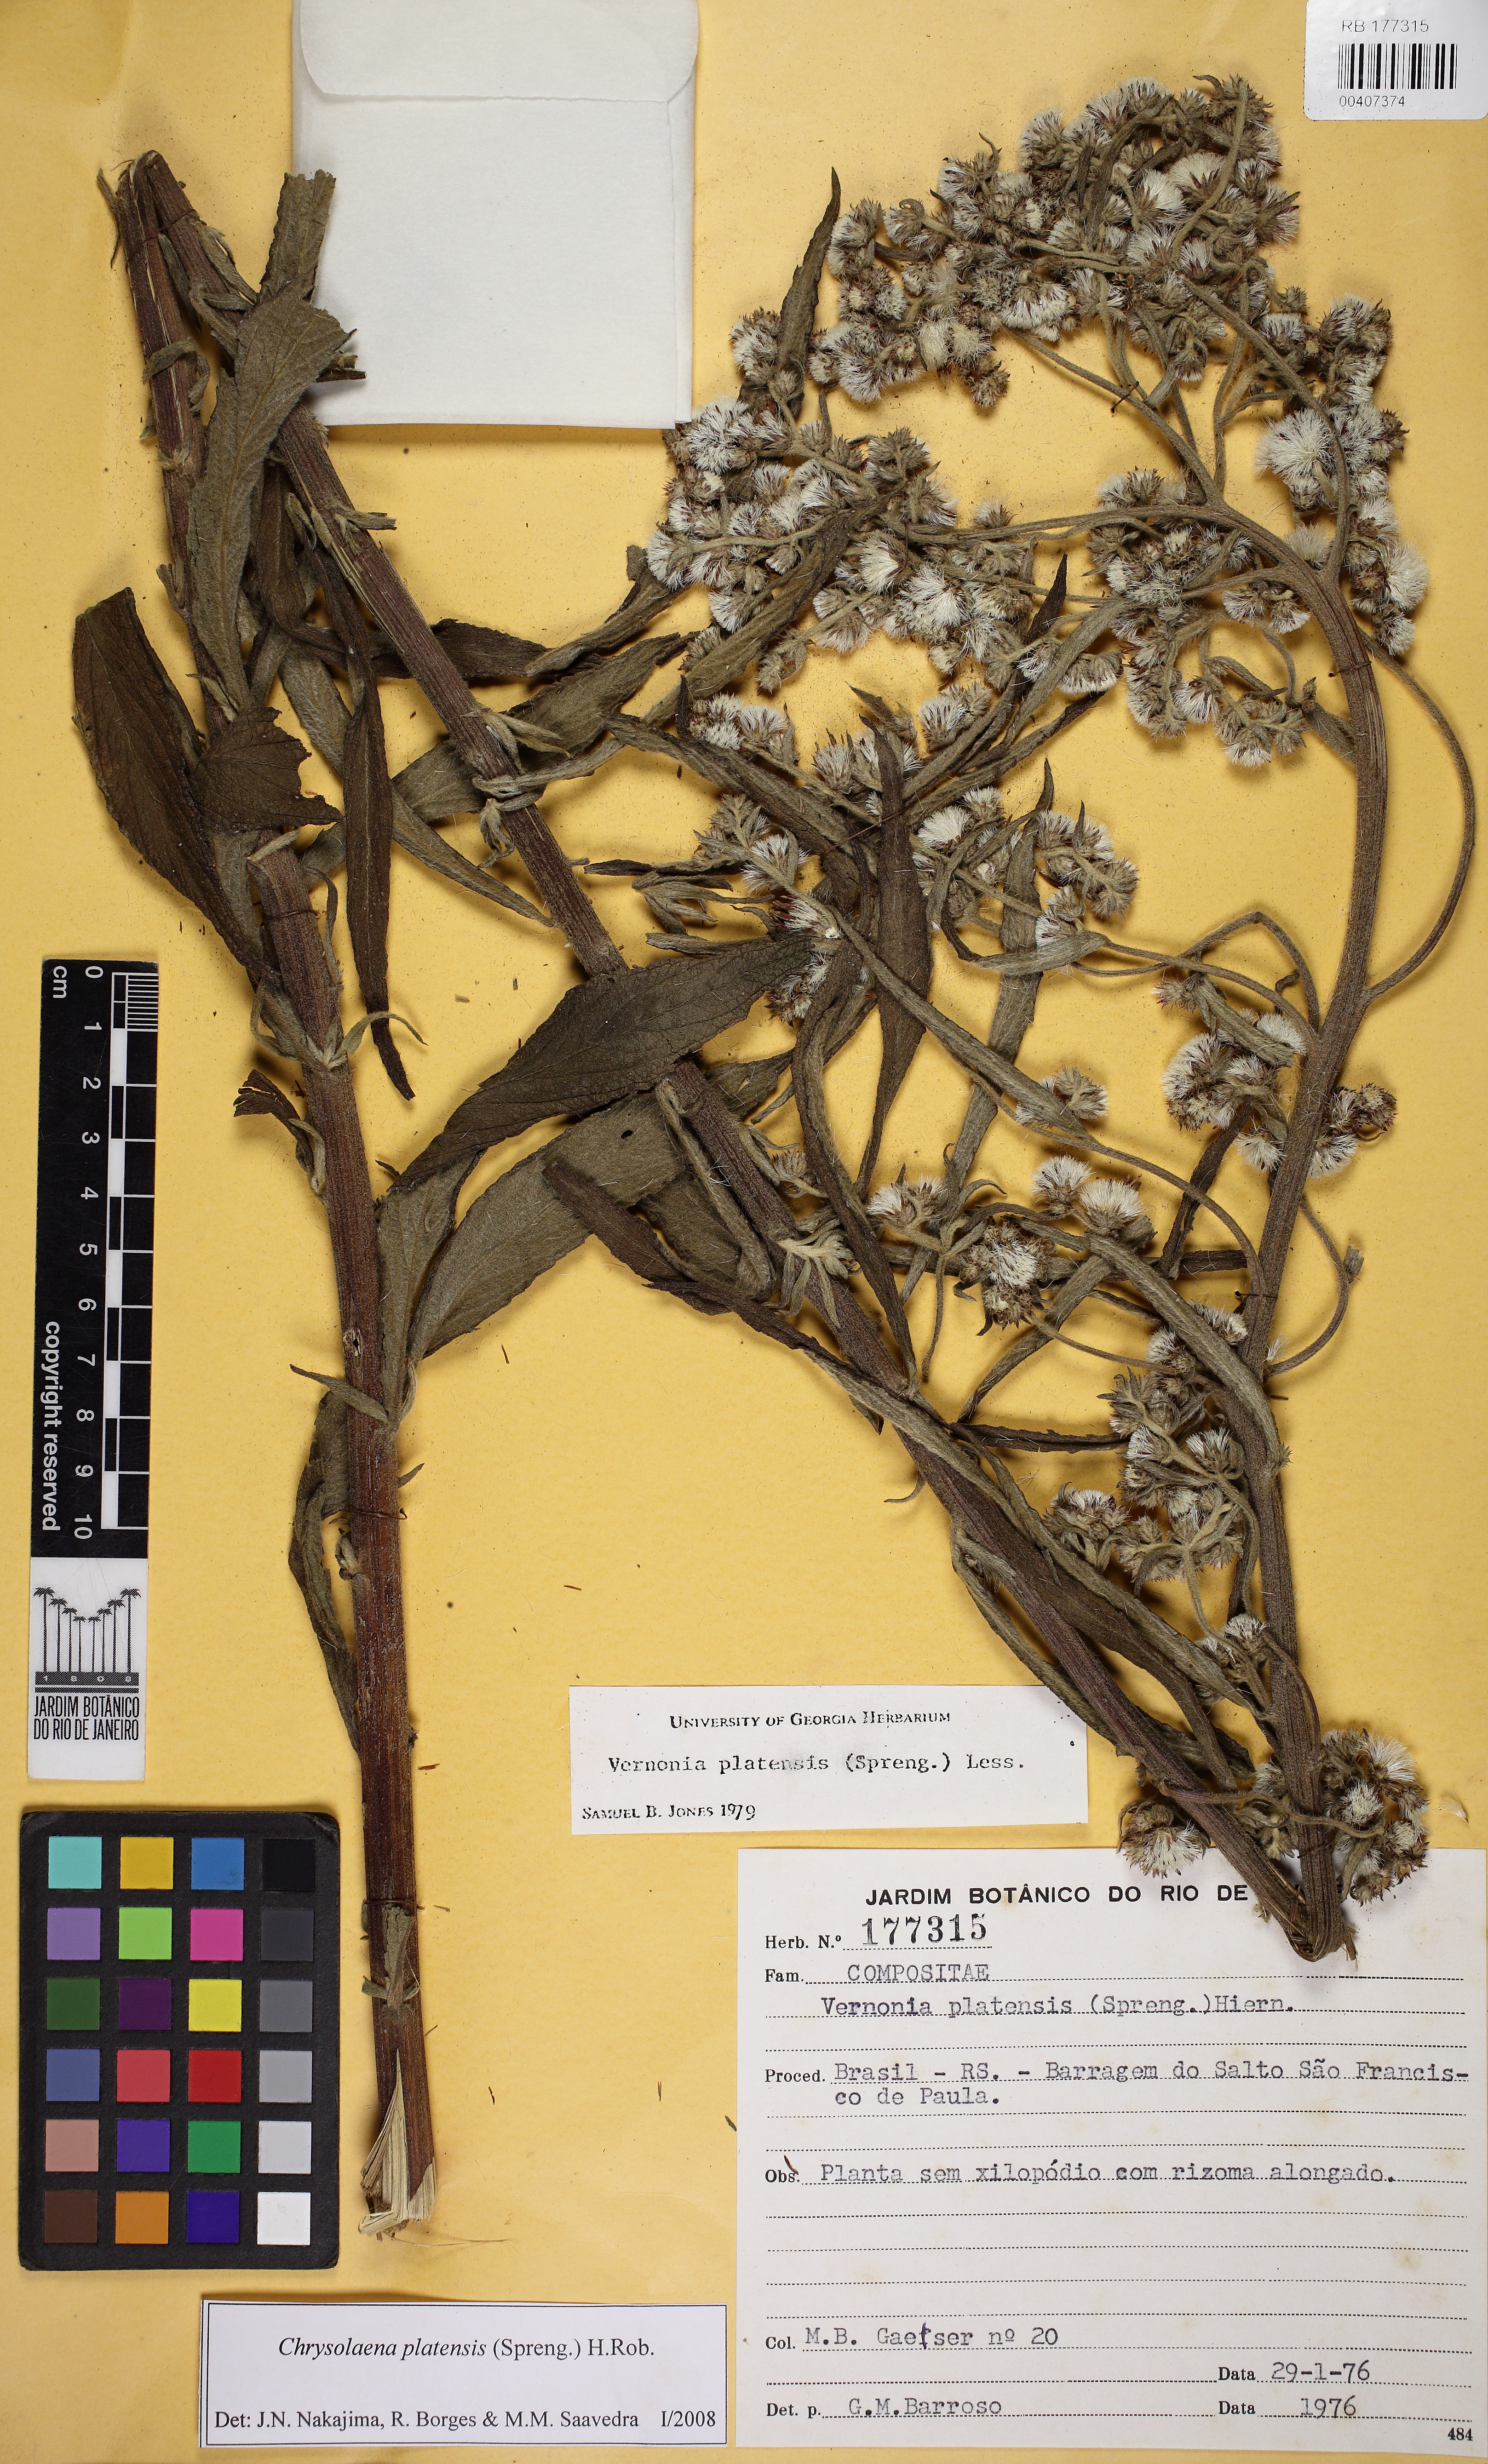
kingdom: Plantae
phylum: Tracheophyta
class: Magnoliopsida
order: Asterales
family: Asteraceae
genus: Chrysolaena
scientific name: Chrysolaena platensis
